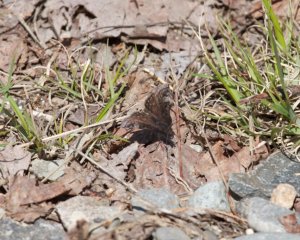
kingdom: Animalia
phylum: Arthropoda
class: Insecta
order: Lepidoptera
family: Hesperiidae
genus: Erynnis
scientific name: Erynnis icelus
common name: Dreamy Duskywing
